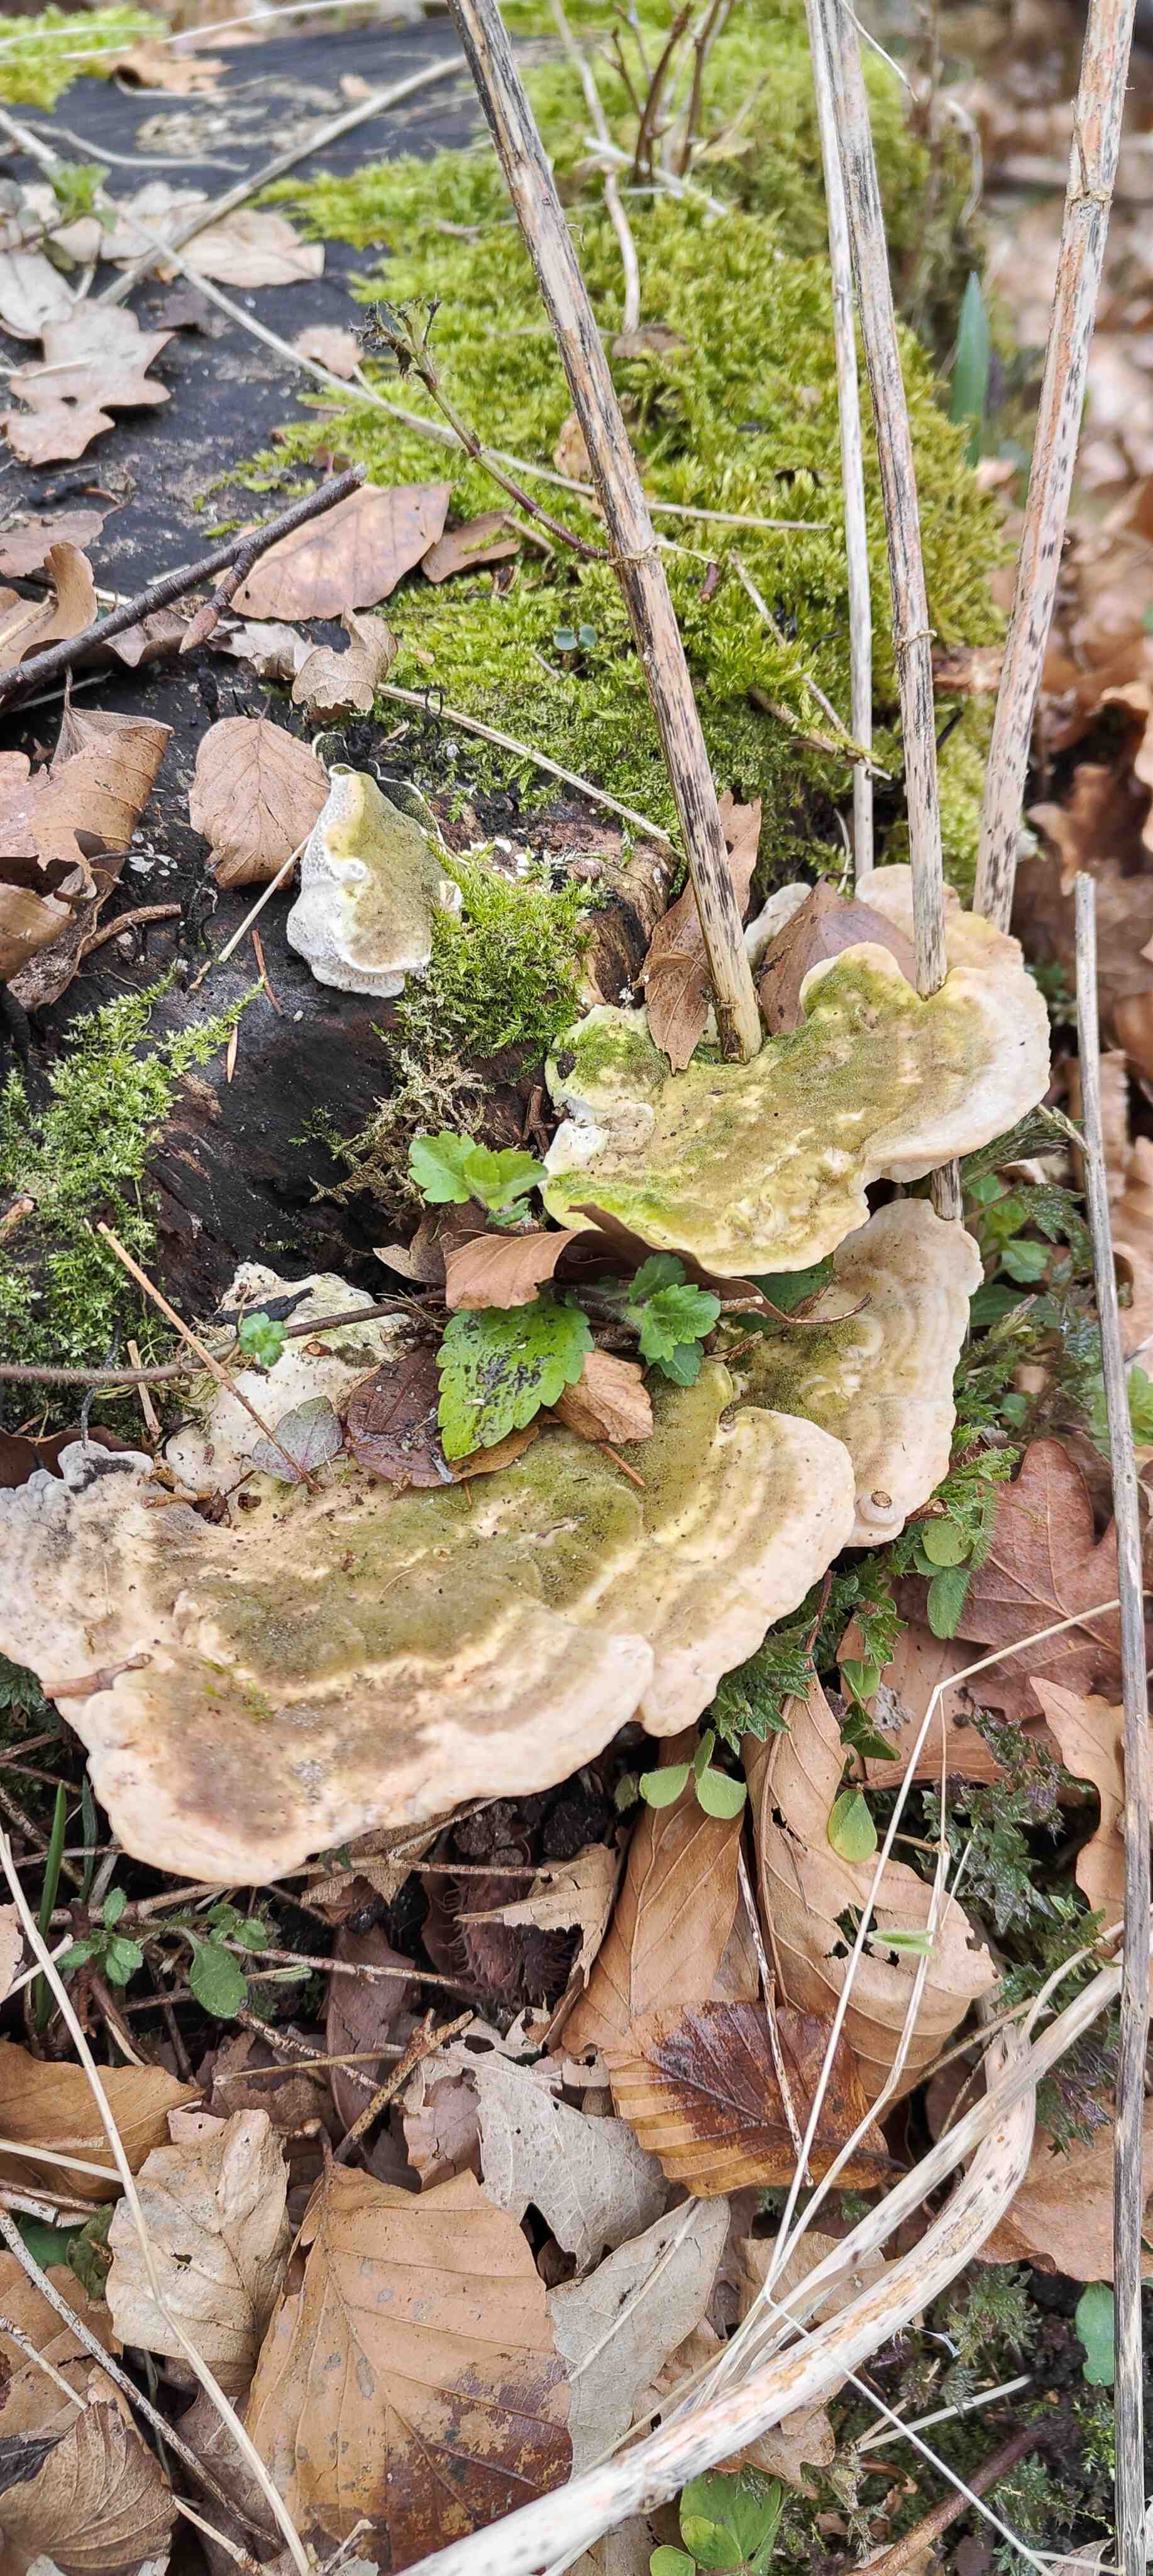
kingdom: Fungi
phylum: Basidiomycota
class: Agaricomycetes
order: Polyporales
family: Polyporaceae
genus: Trametes
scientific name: Trametes gibbosa
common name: puklet læderporesvamp
